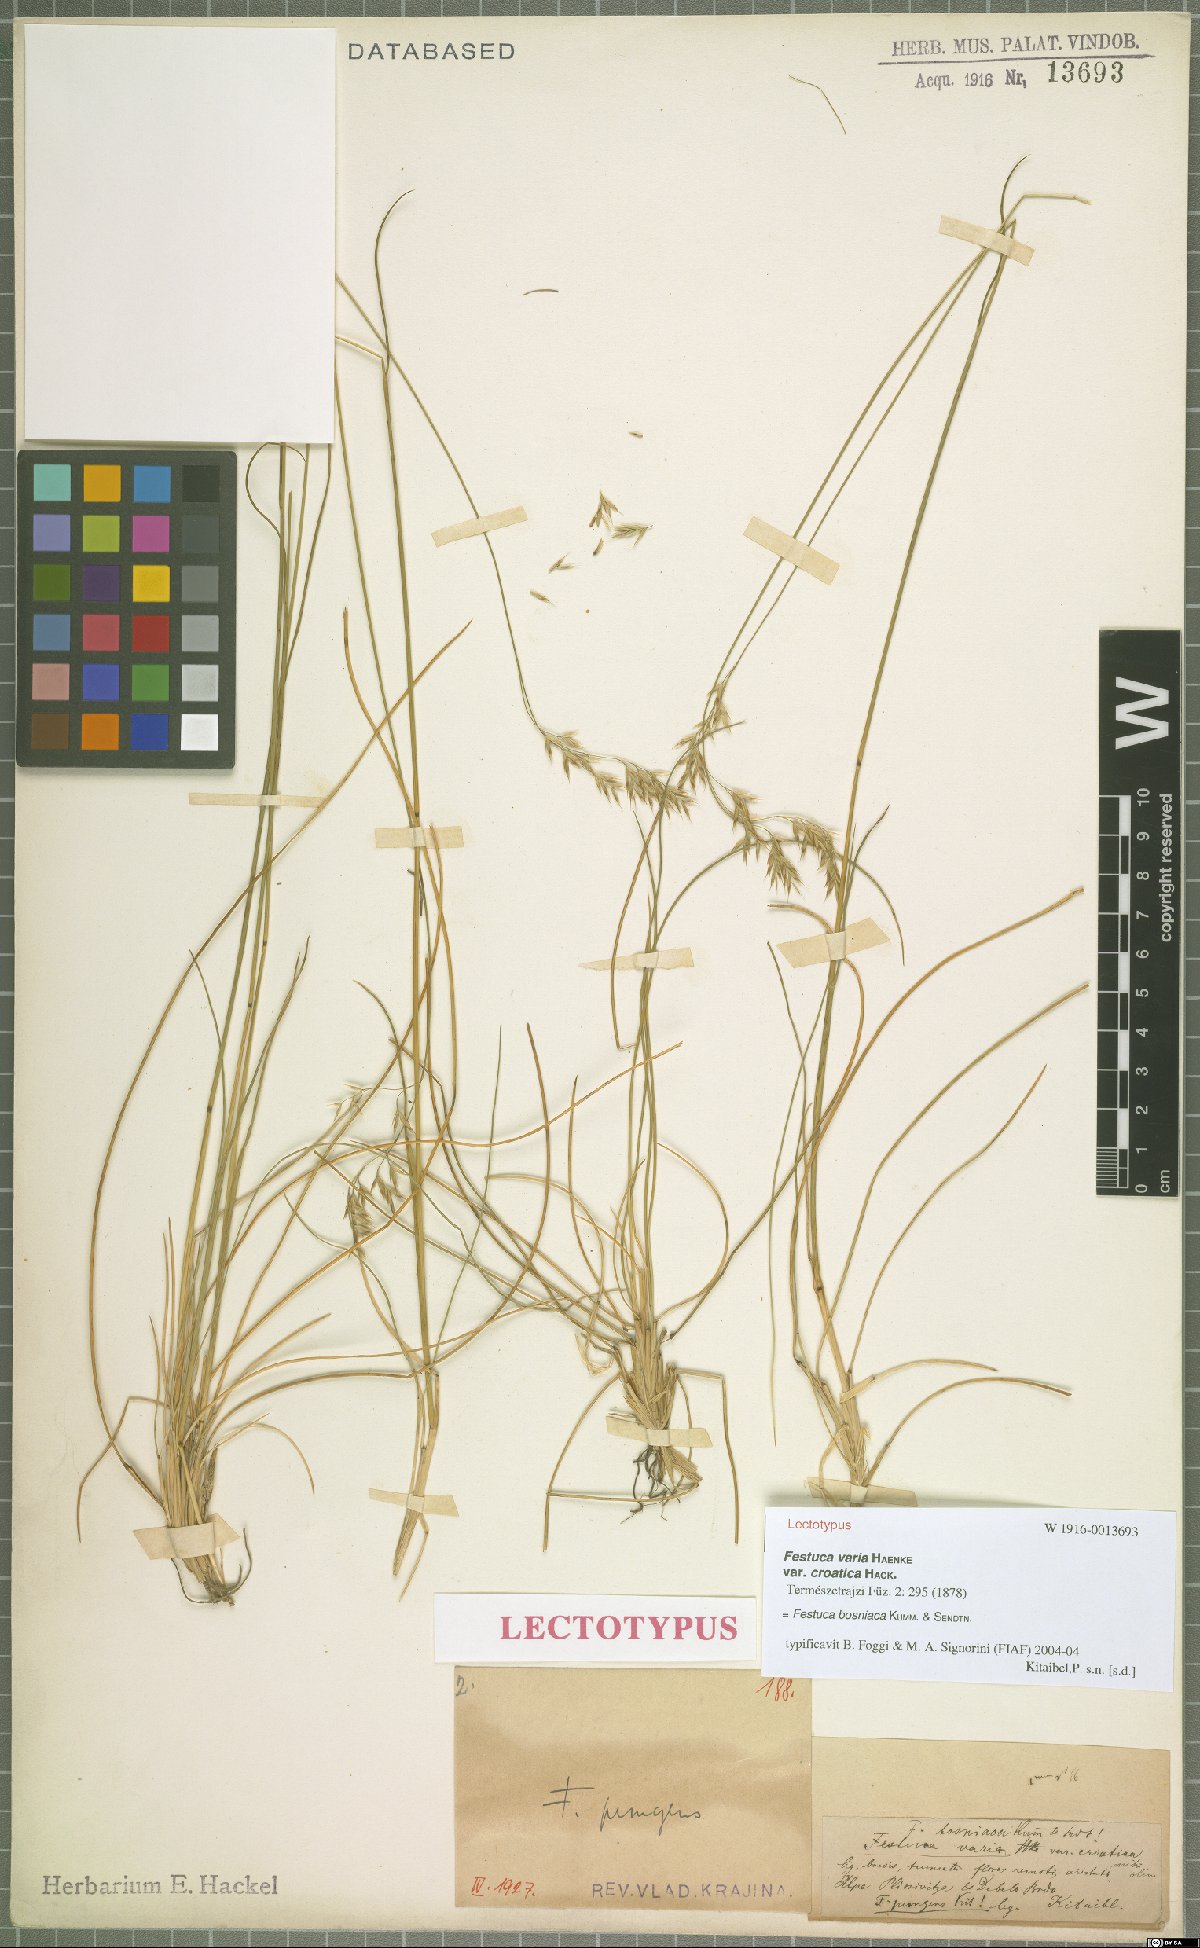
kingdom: Plantae
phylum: Tracheophyta
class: Liliopsida
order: Poales
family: Poaceae
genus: Festuca
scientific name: Festuca bosniaca
